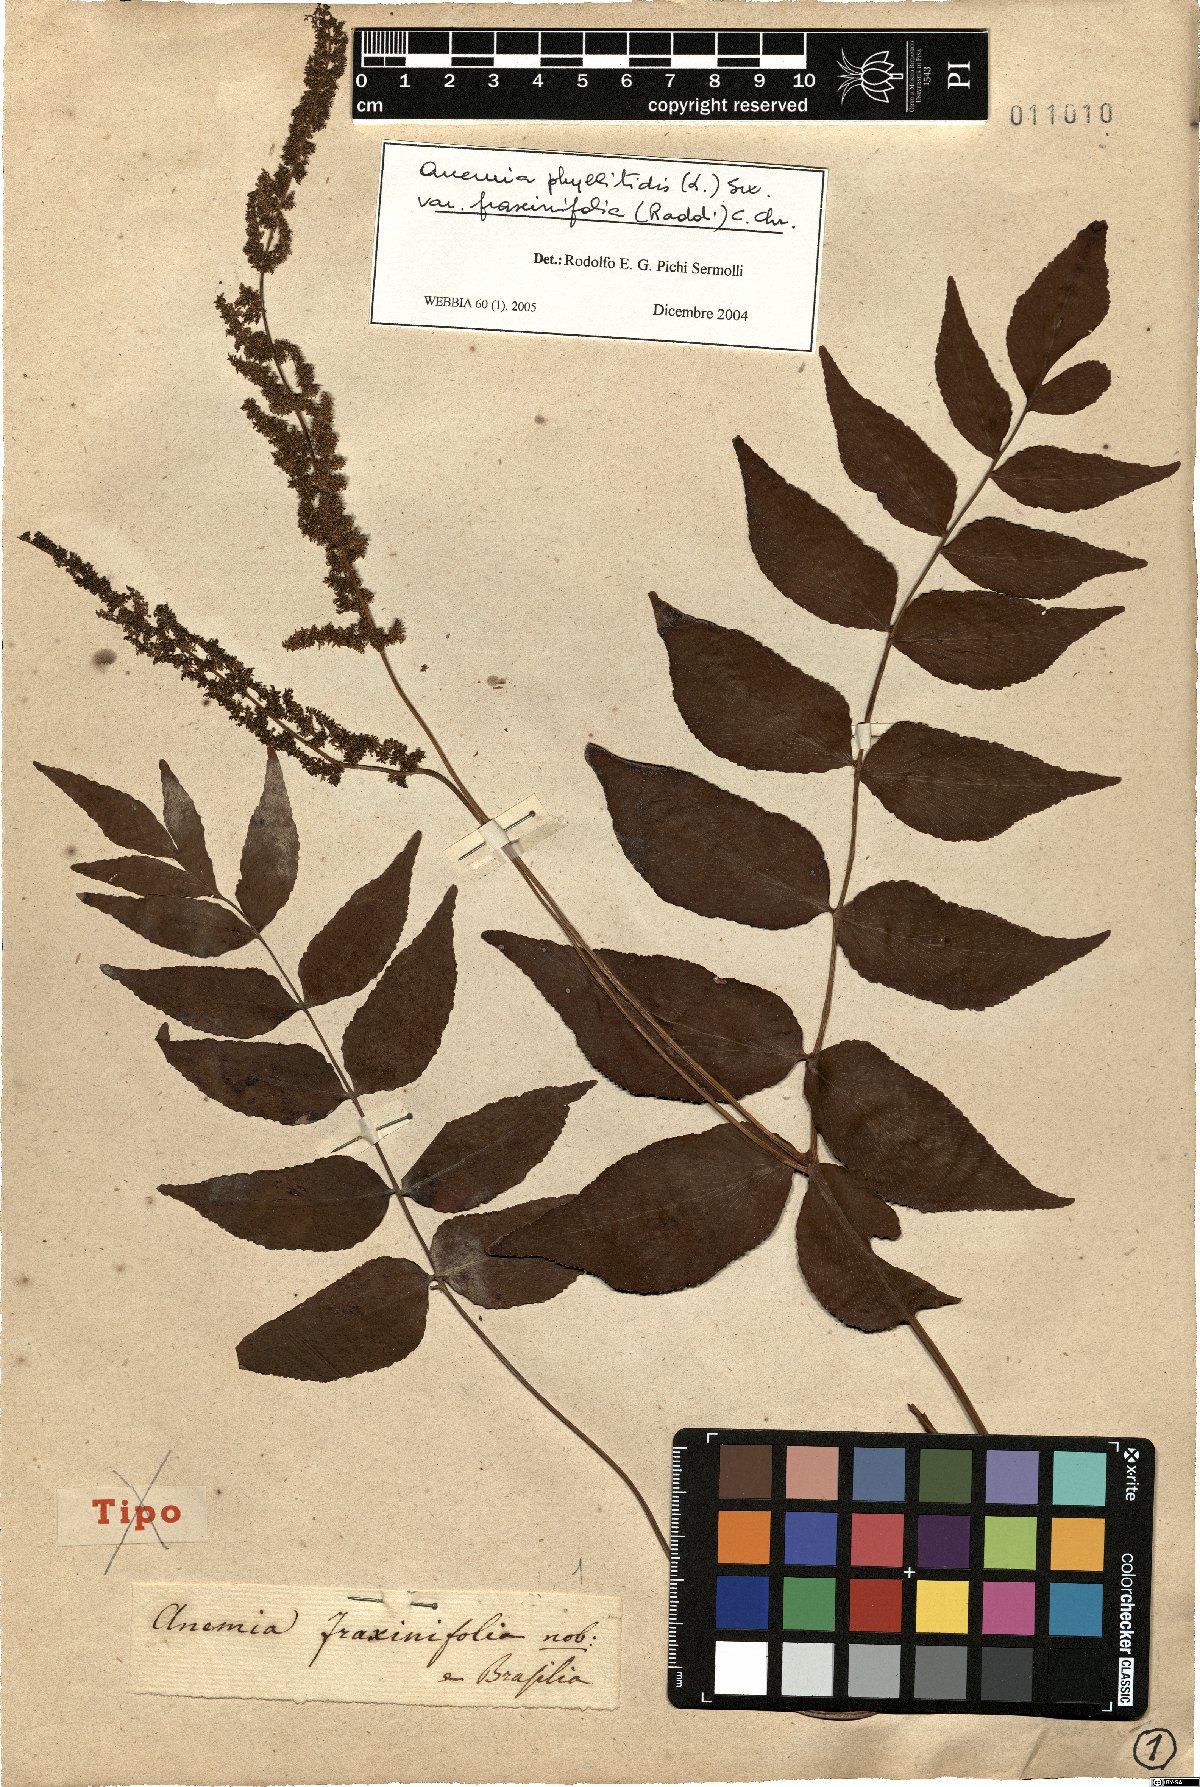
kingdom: Plantae
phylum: Tracheophyta
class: Polypodiopsida
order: Schizaeales
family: Anemiaceae
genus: Anemia
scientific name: Anemia phyllitidis
